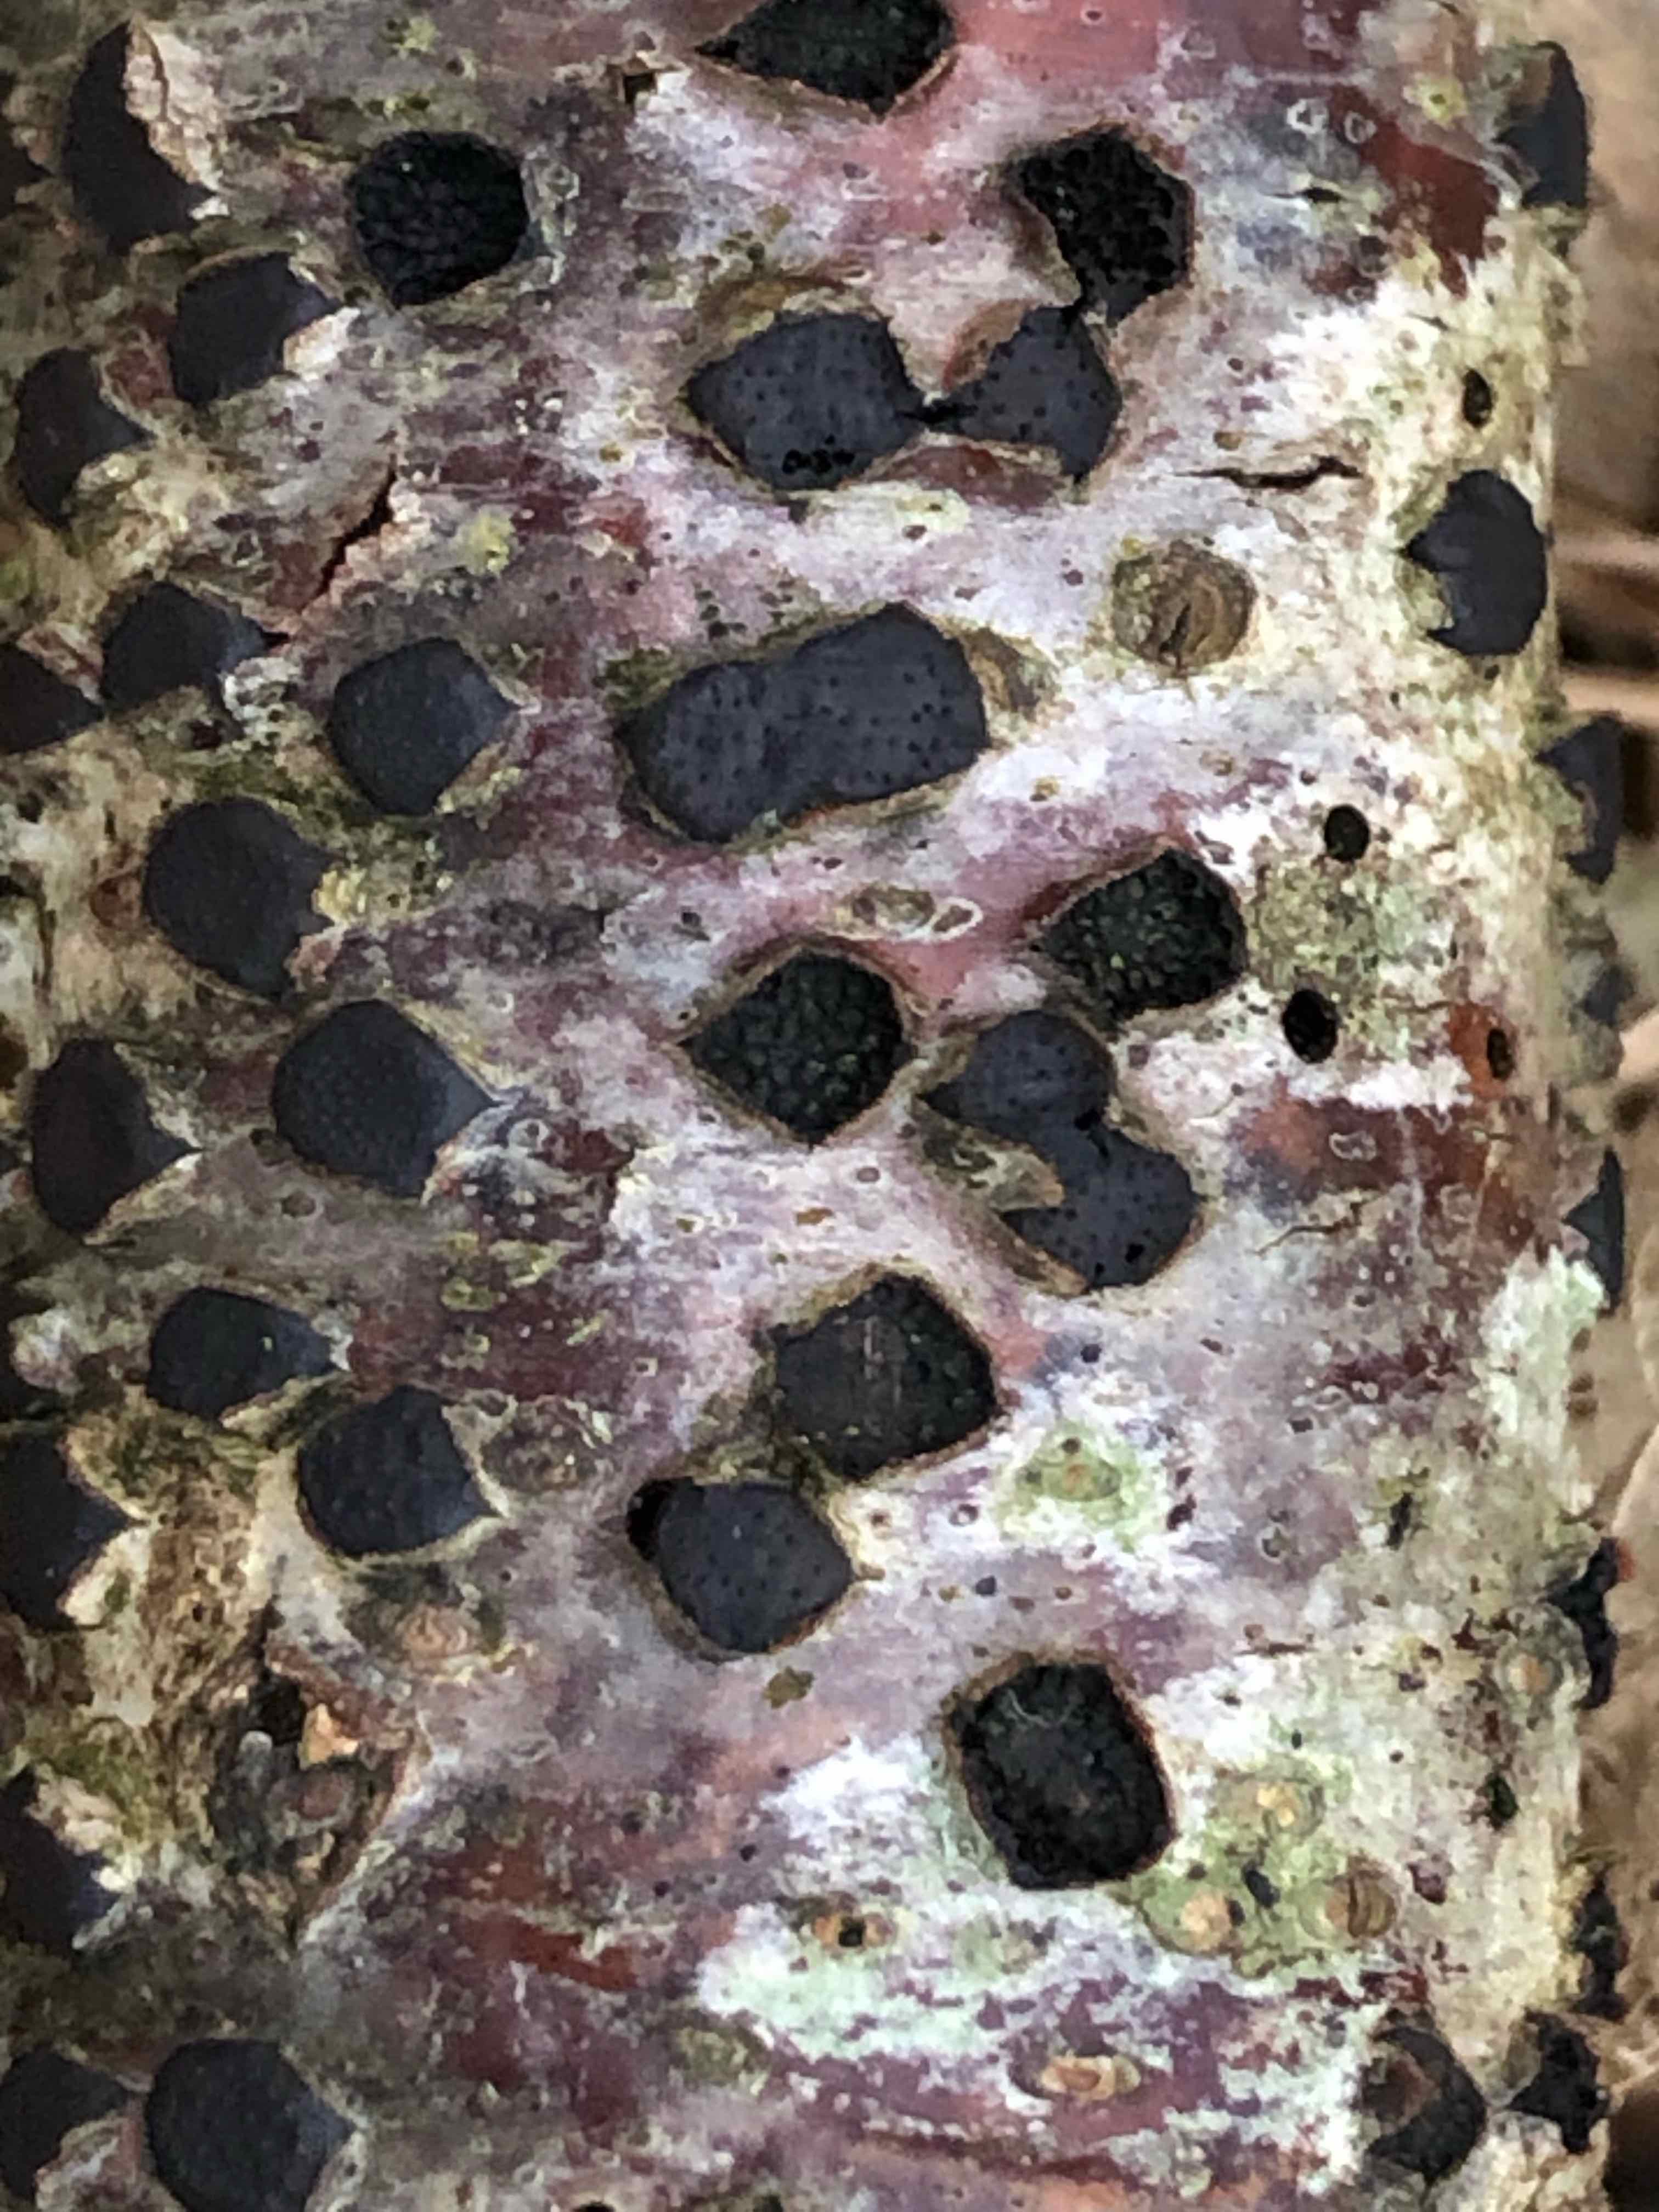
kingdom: Fungi
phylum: Ascomycota
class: Sordariomycetes
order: Xylariales
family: Diatrypaceae
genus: Diatrype
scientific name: Diatrype disciformis
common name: kant-kulskorpe
